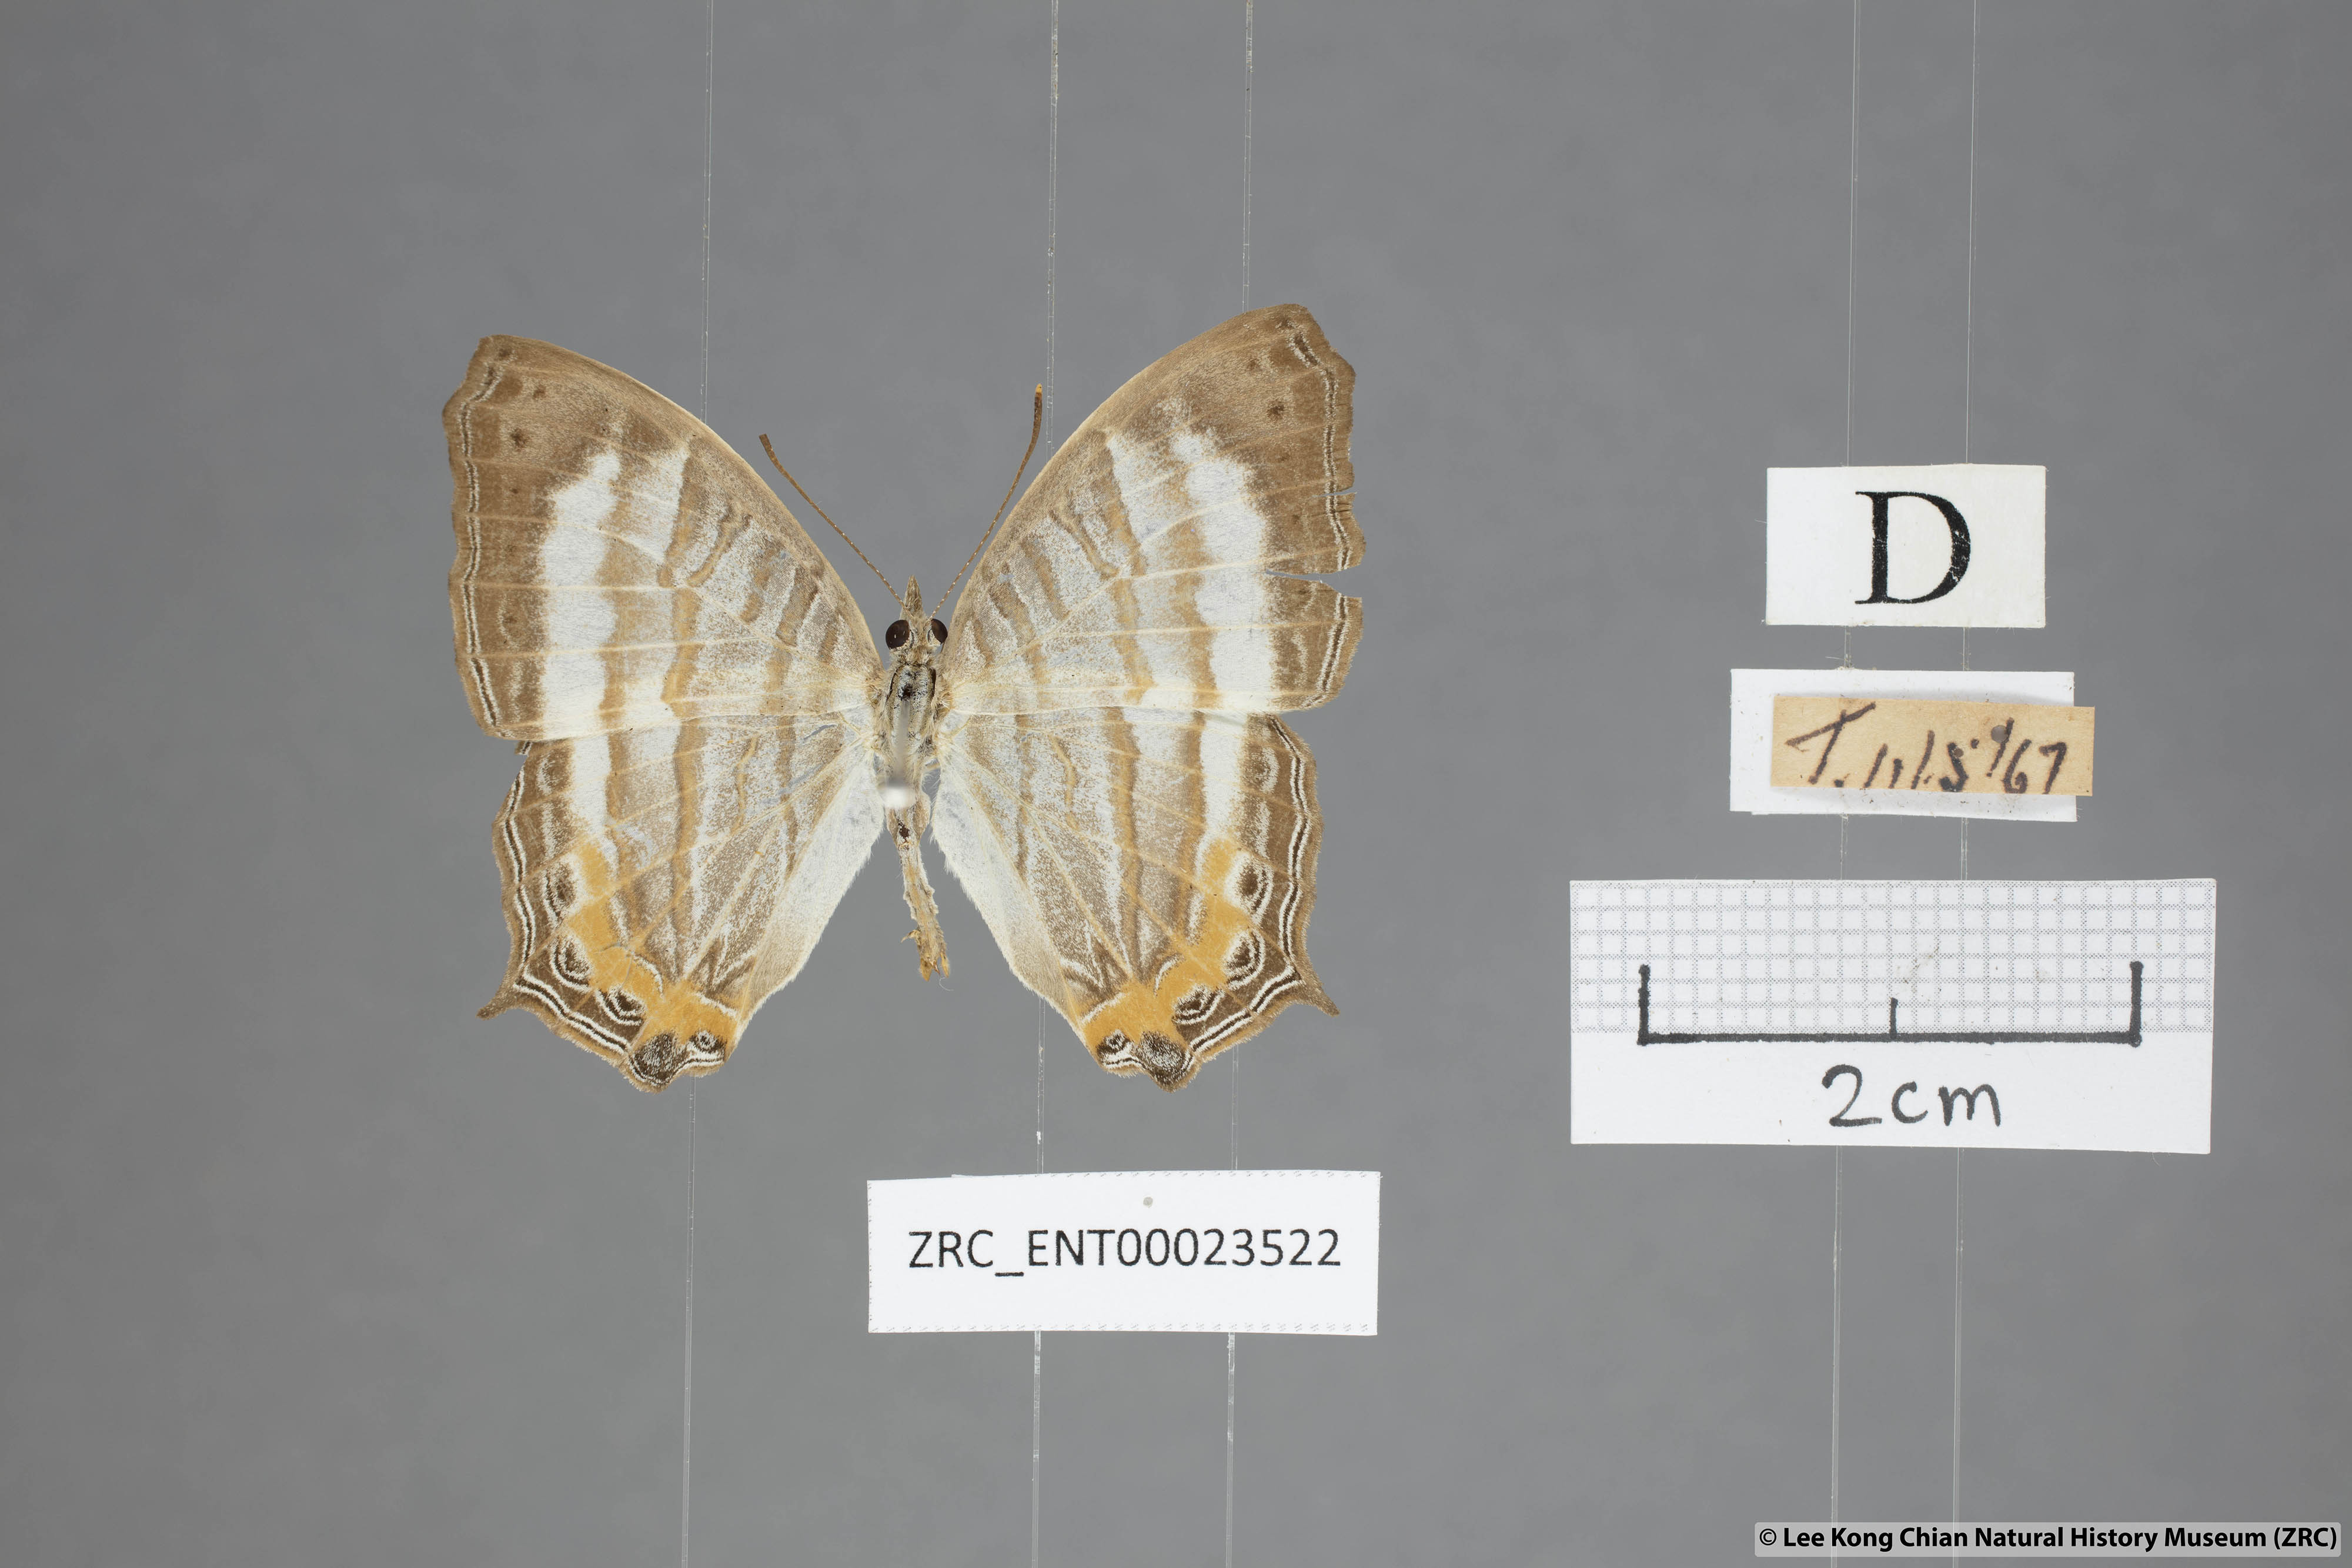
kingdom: Animalia
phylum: Arthropoda
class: Insecta
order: Lepidoptera
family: Nymphalidae
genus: Cyrestis
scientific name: Cyrestis themire
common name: Little mapwing
